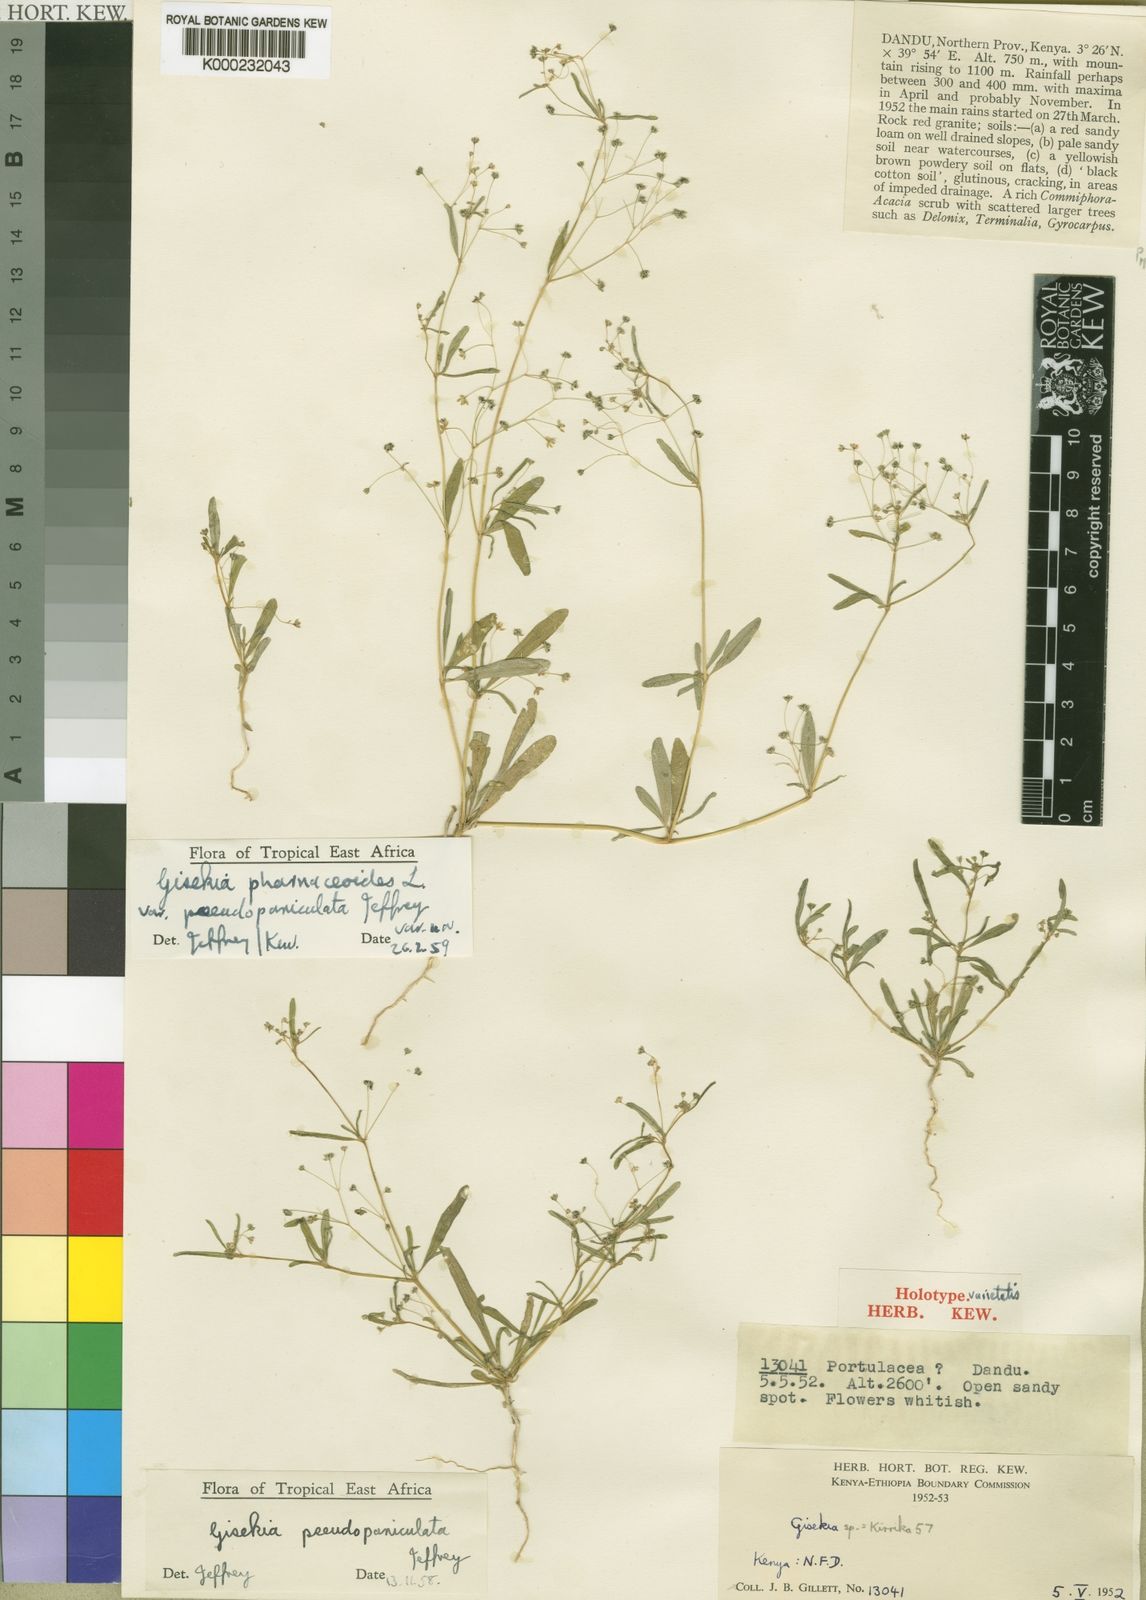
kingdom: Plantae
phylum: Tracheophyta
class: Magnoliopsida
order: Caryophyllales
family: Gisekiaceae
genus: Gisekia
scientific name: Gisekia diffusa
